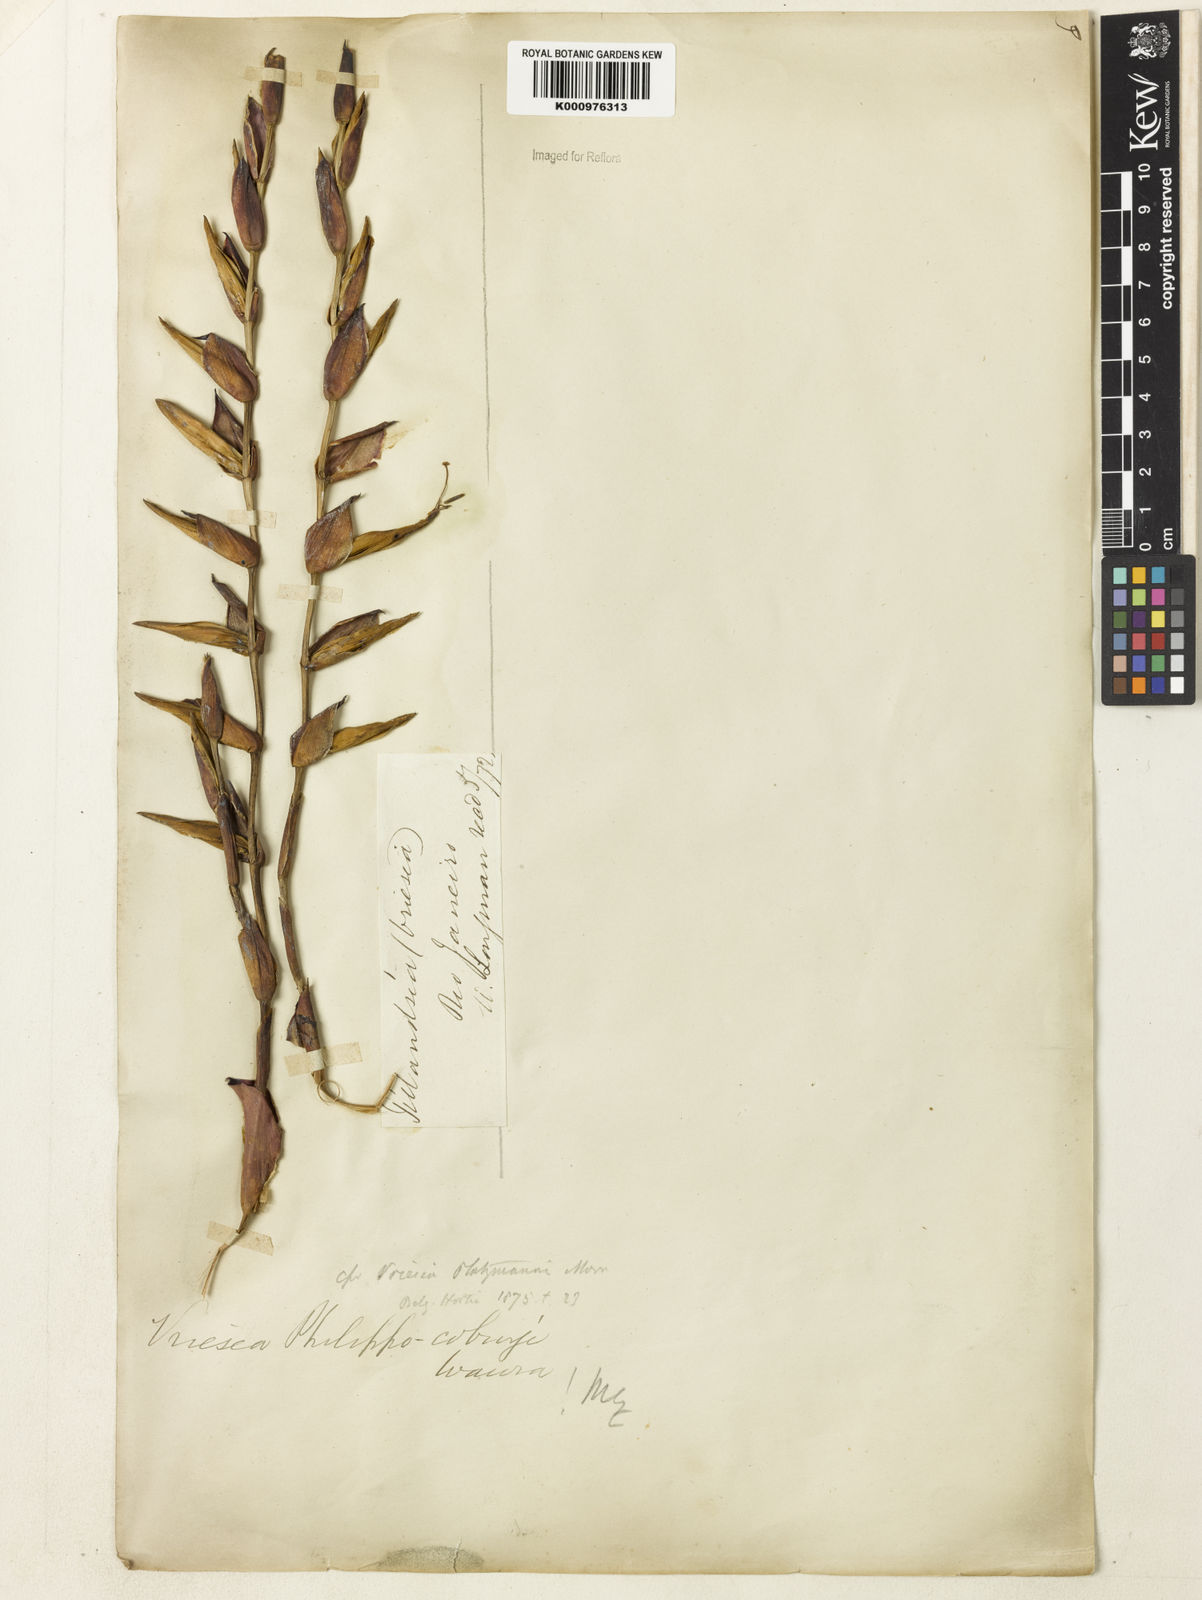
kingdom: Plantae
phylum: Tracheophyta
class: Liliopsida
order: Poales
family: Bromeliaceae
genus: Vriesea
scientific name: Vriesea philippocoburgi
